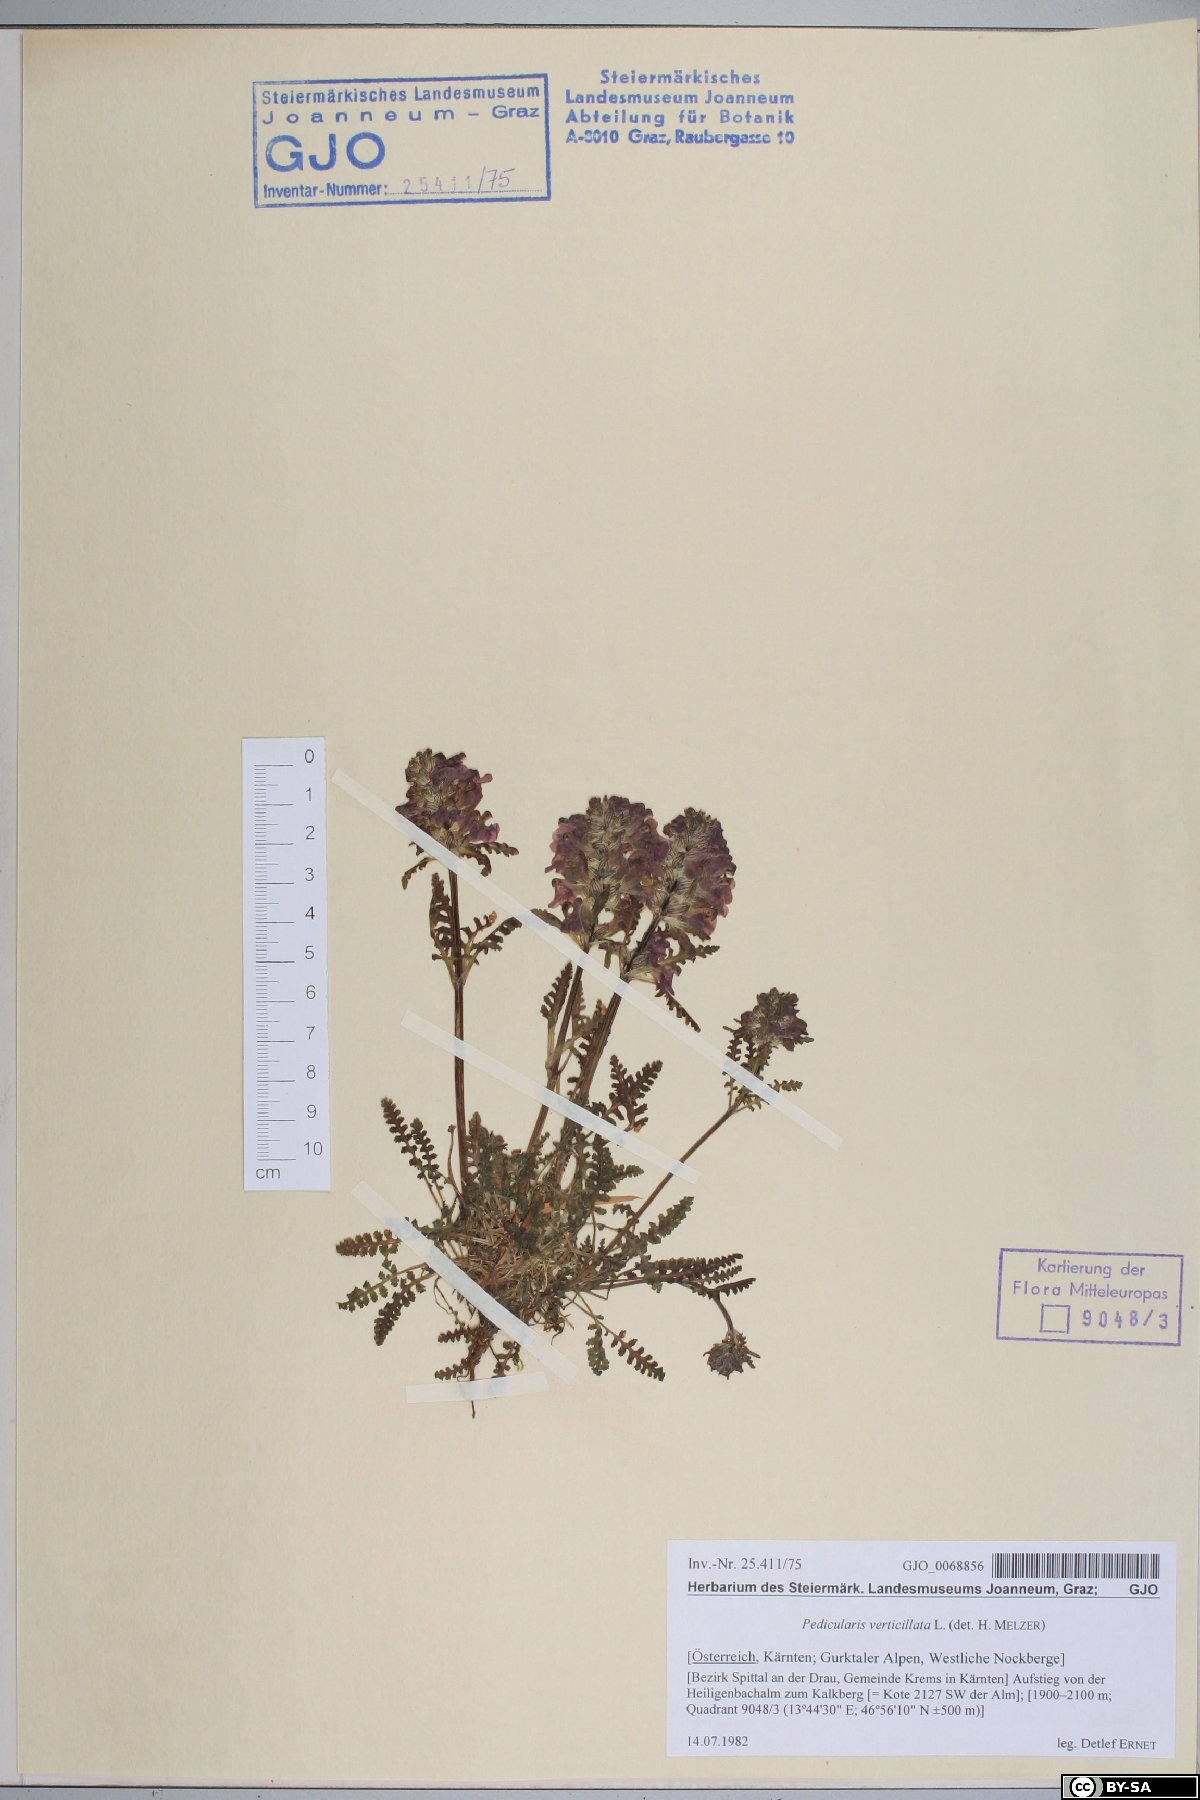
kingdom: Plantae
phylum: Tracheophyta
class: Magnoliopsida
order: Lamiales
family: Orobanchaceae
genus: Pedicularis
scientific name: Pedicularis verticillata
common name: Whorled lousewort
